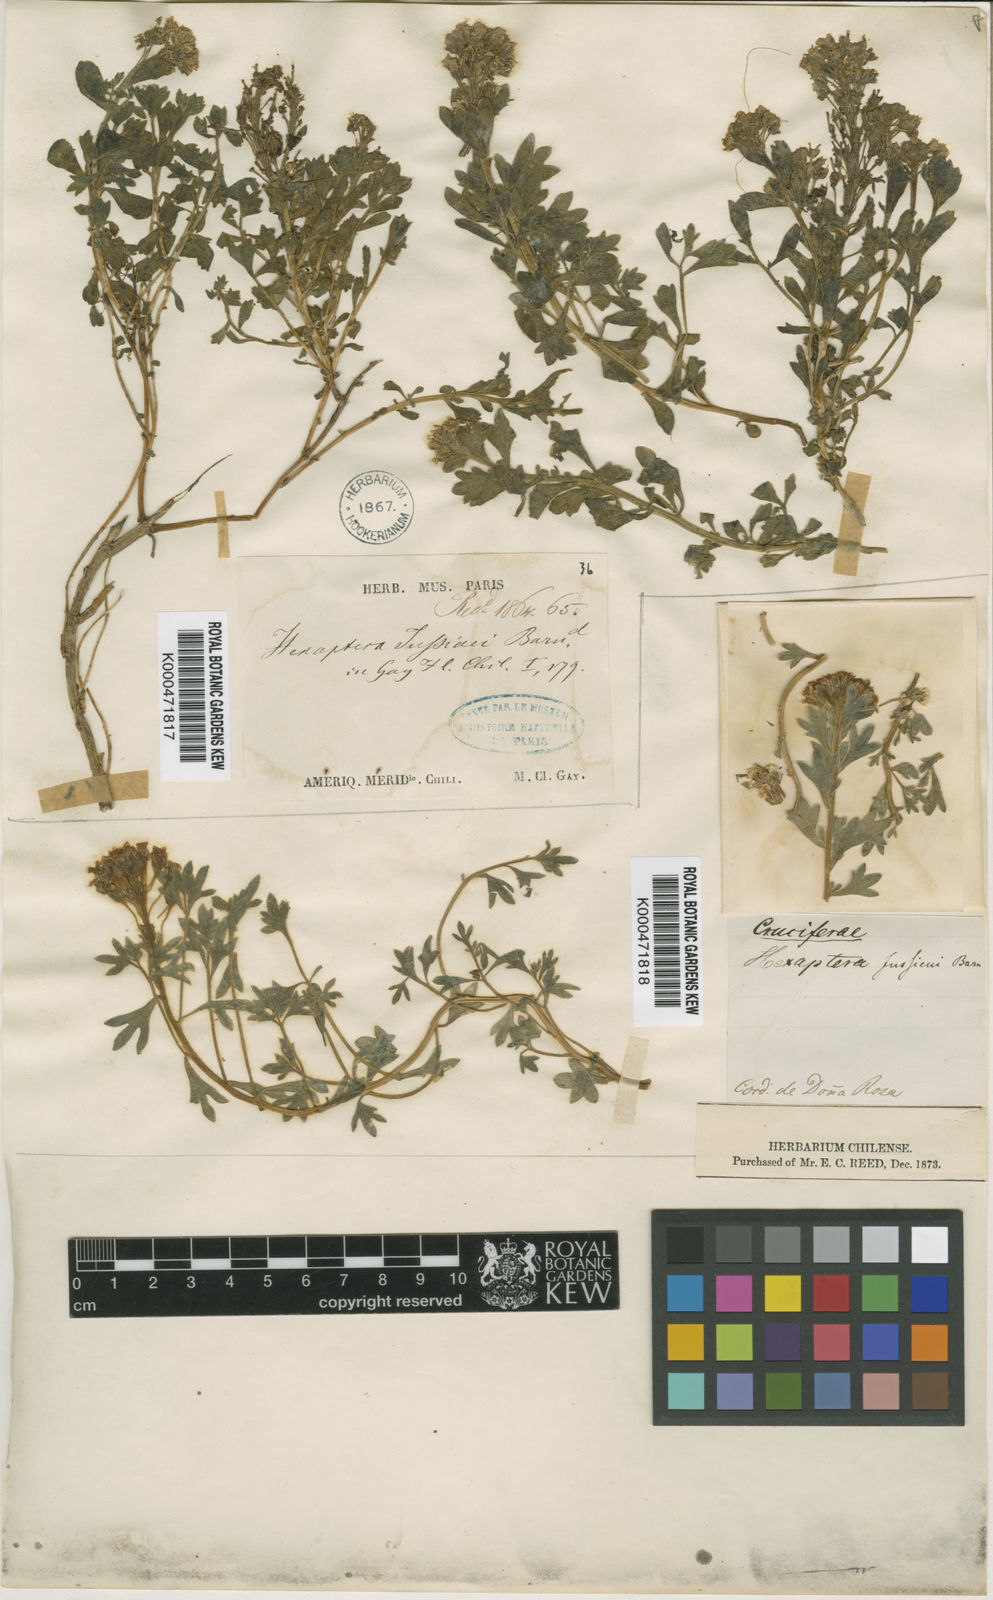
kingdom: Plantae
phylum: Tracheophyta
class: Magnoliopsida
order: Brassicales
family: Brassicaceae
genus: Menonvillea
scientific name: Menonvillea cuneata
